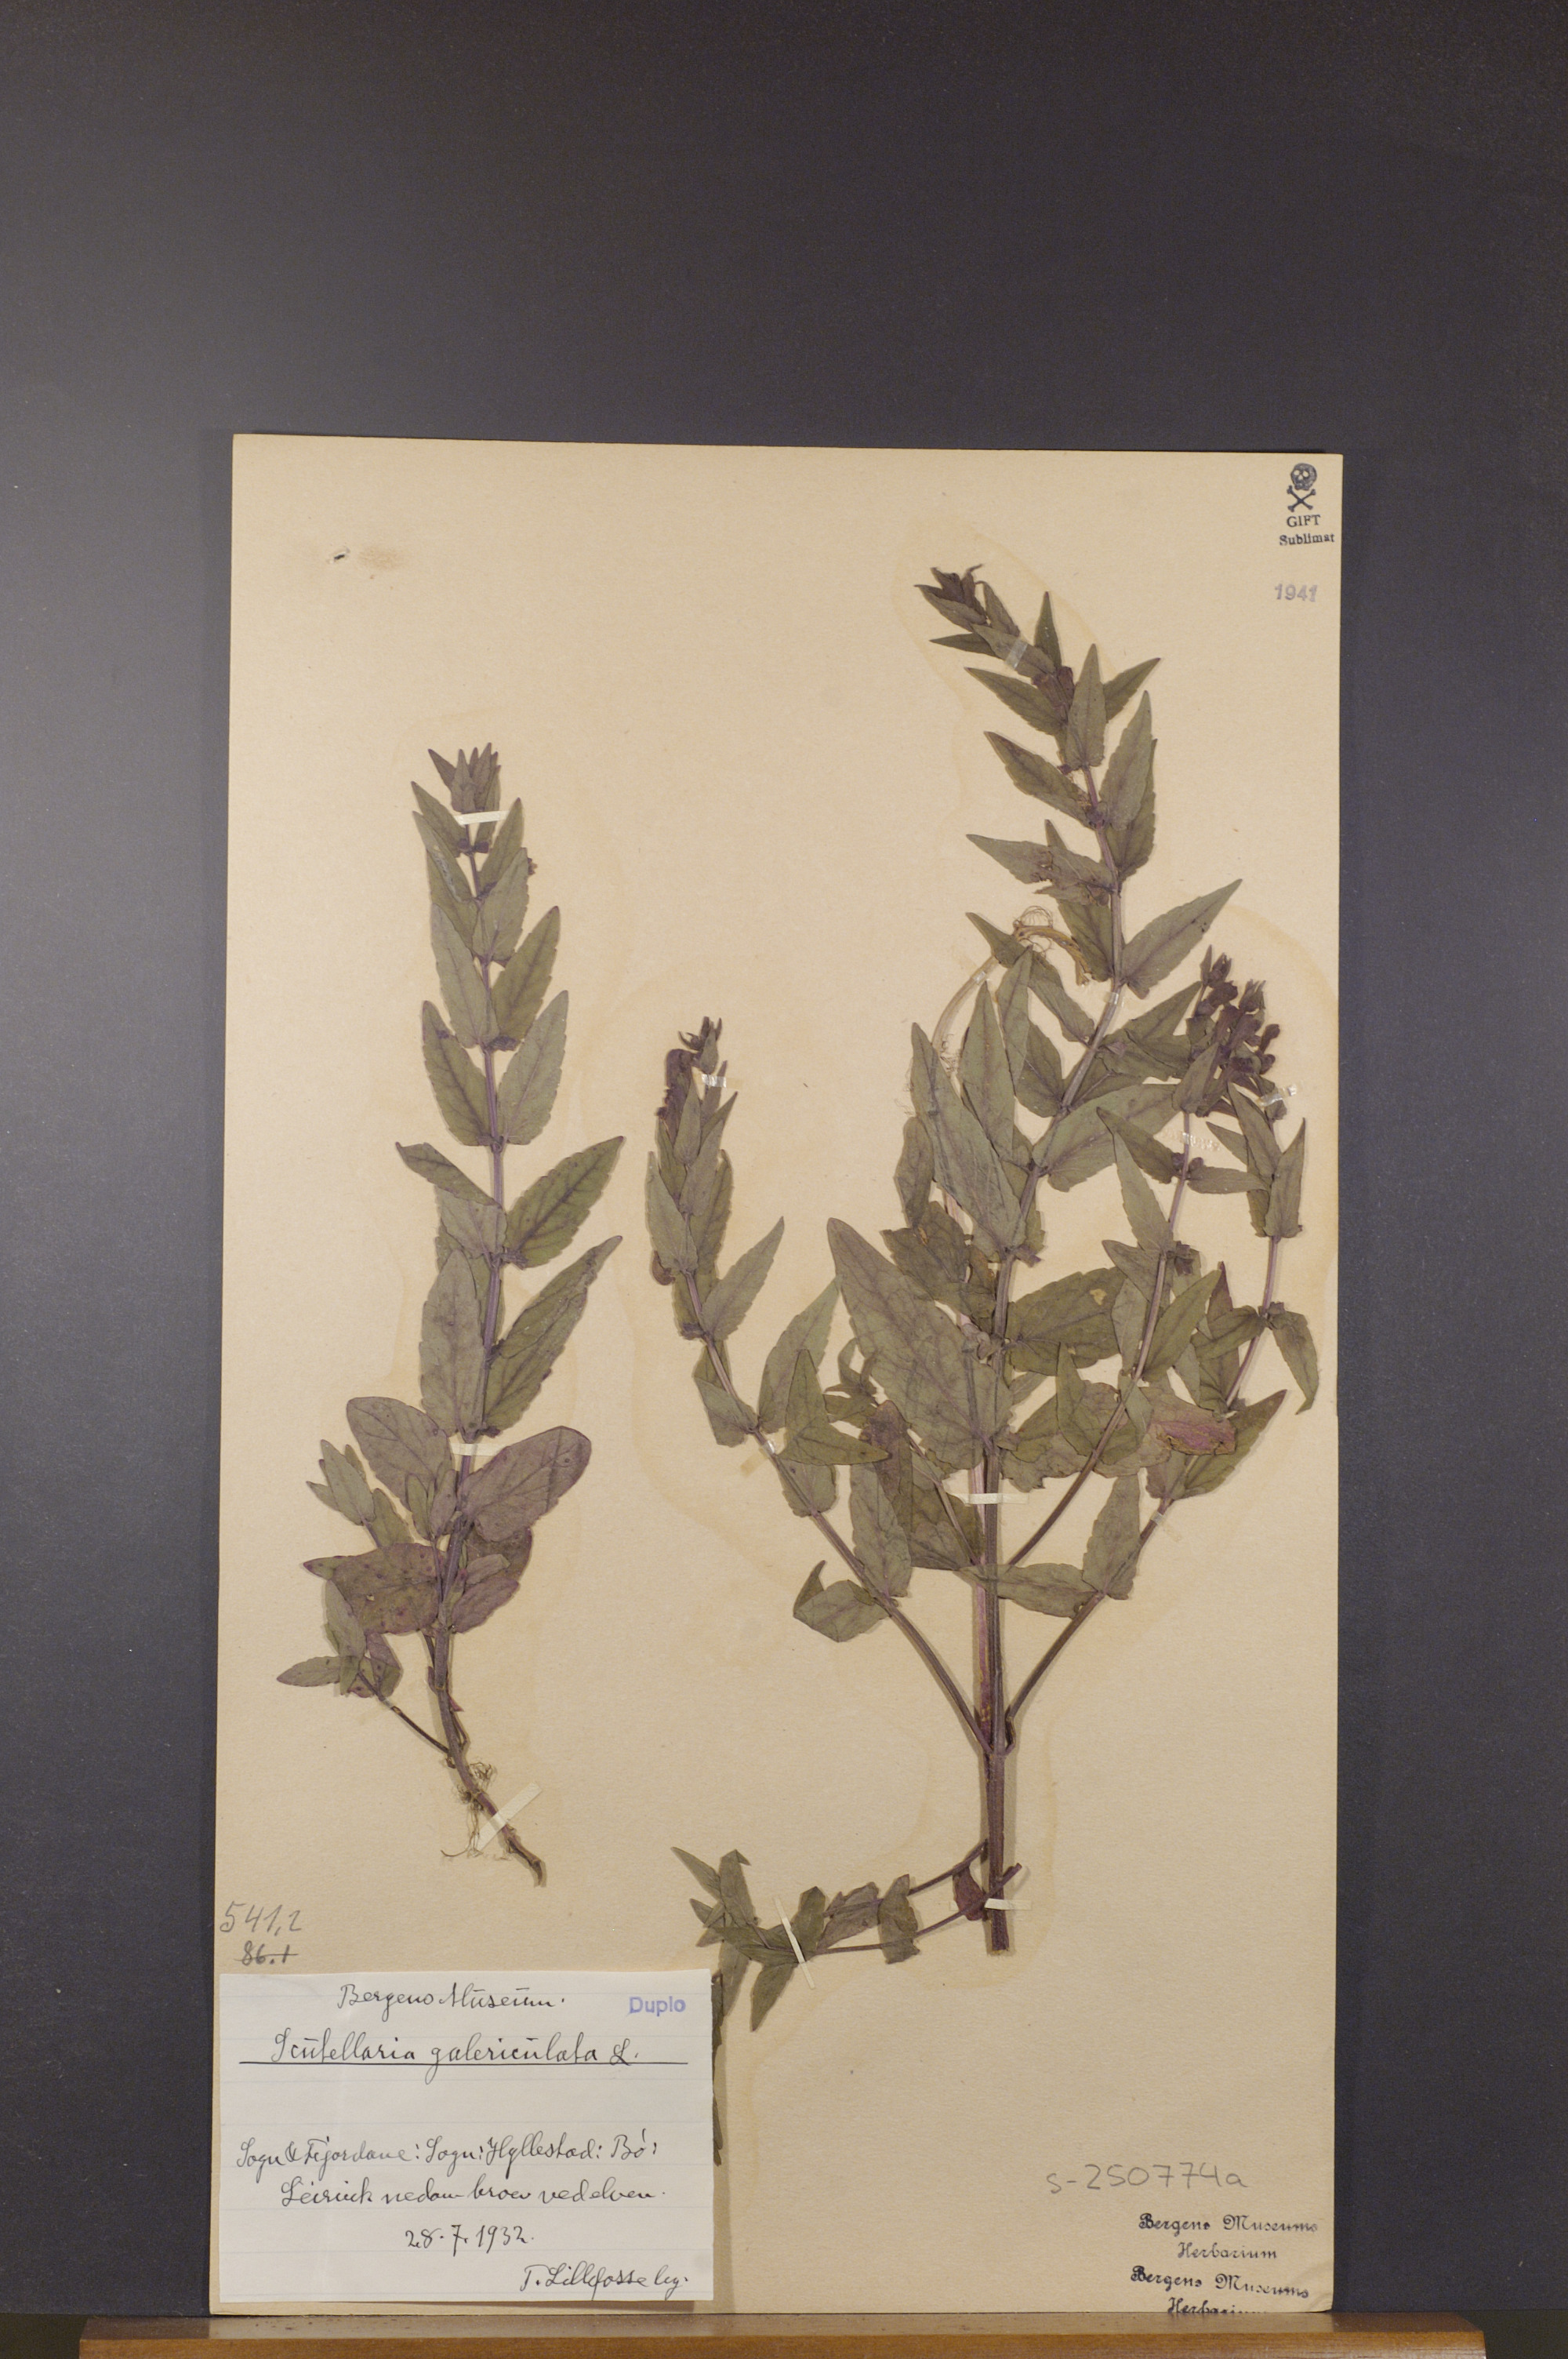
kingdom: Plantae
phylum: Tracheophyta
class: Magnoliopsida
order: Lamiales
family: Lamiaceae
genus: Scutellaria
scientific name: Scutellaria galericulata
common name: Skullcap
